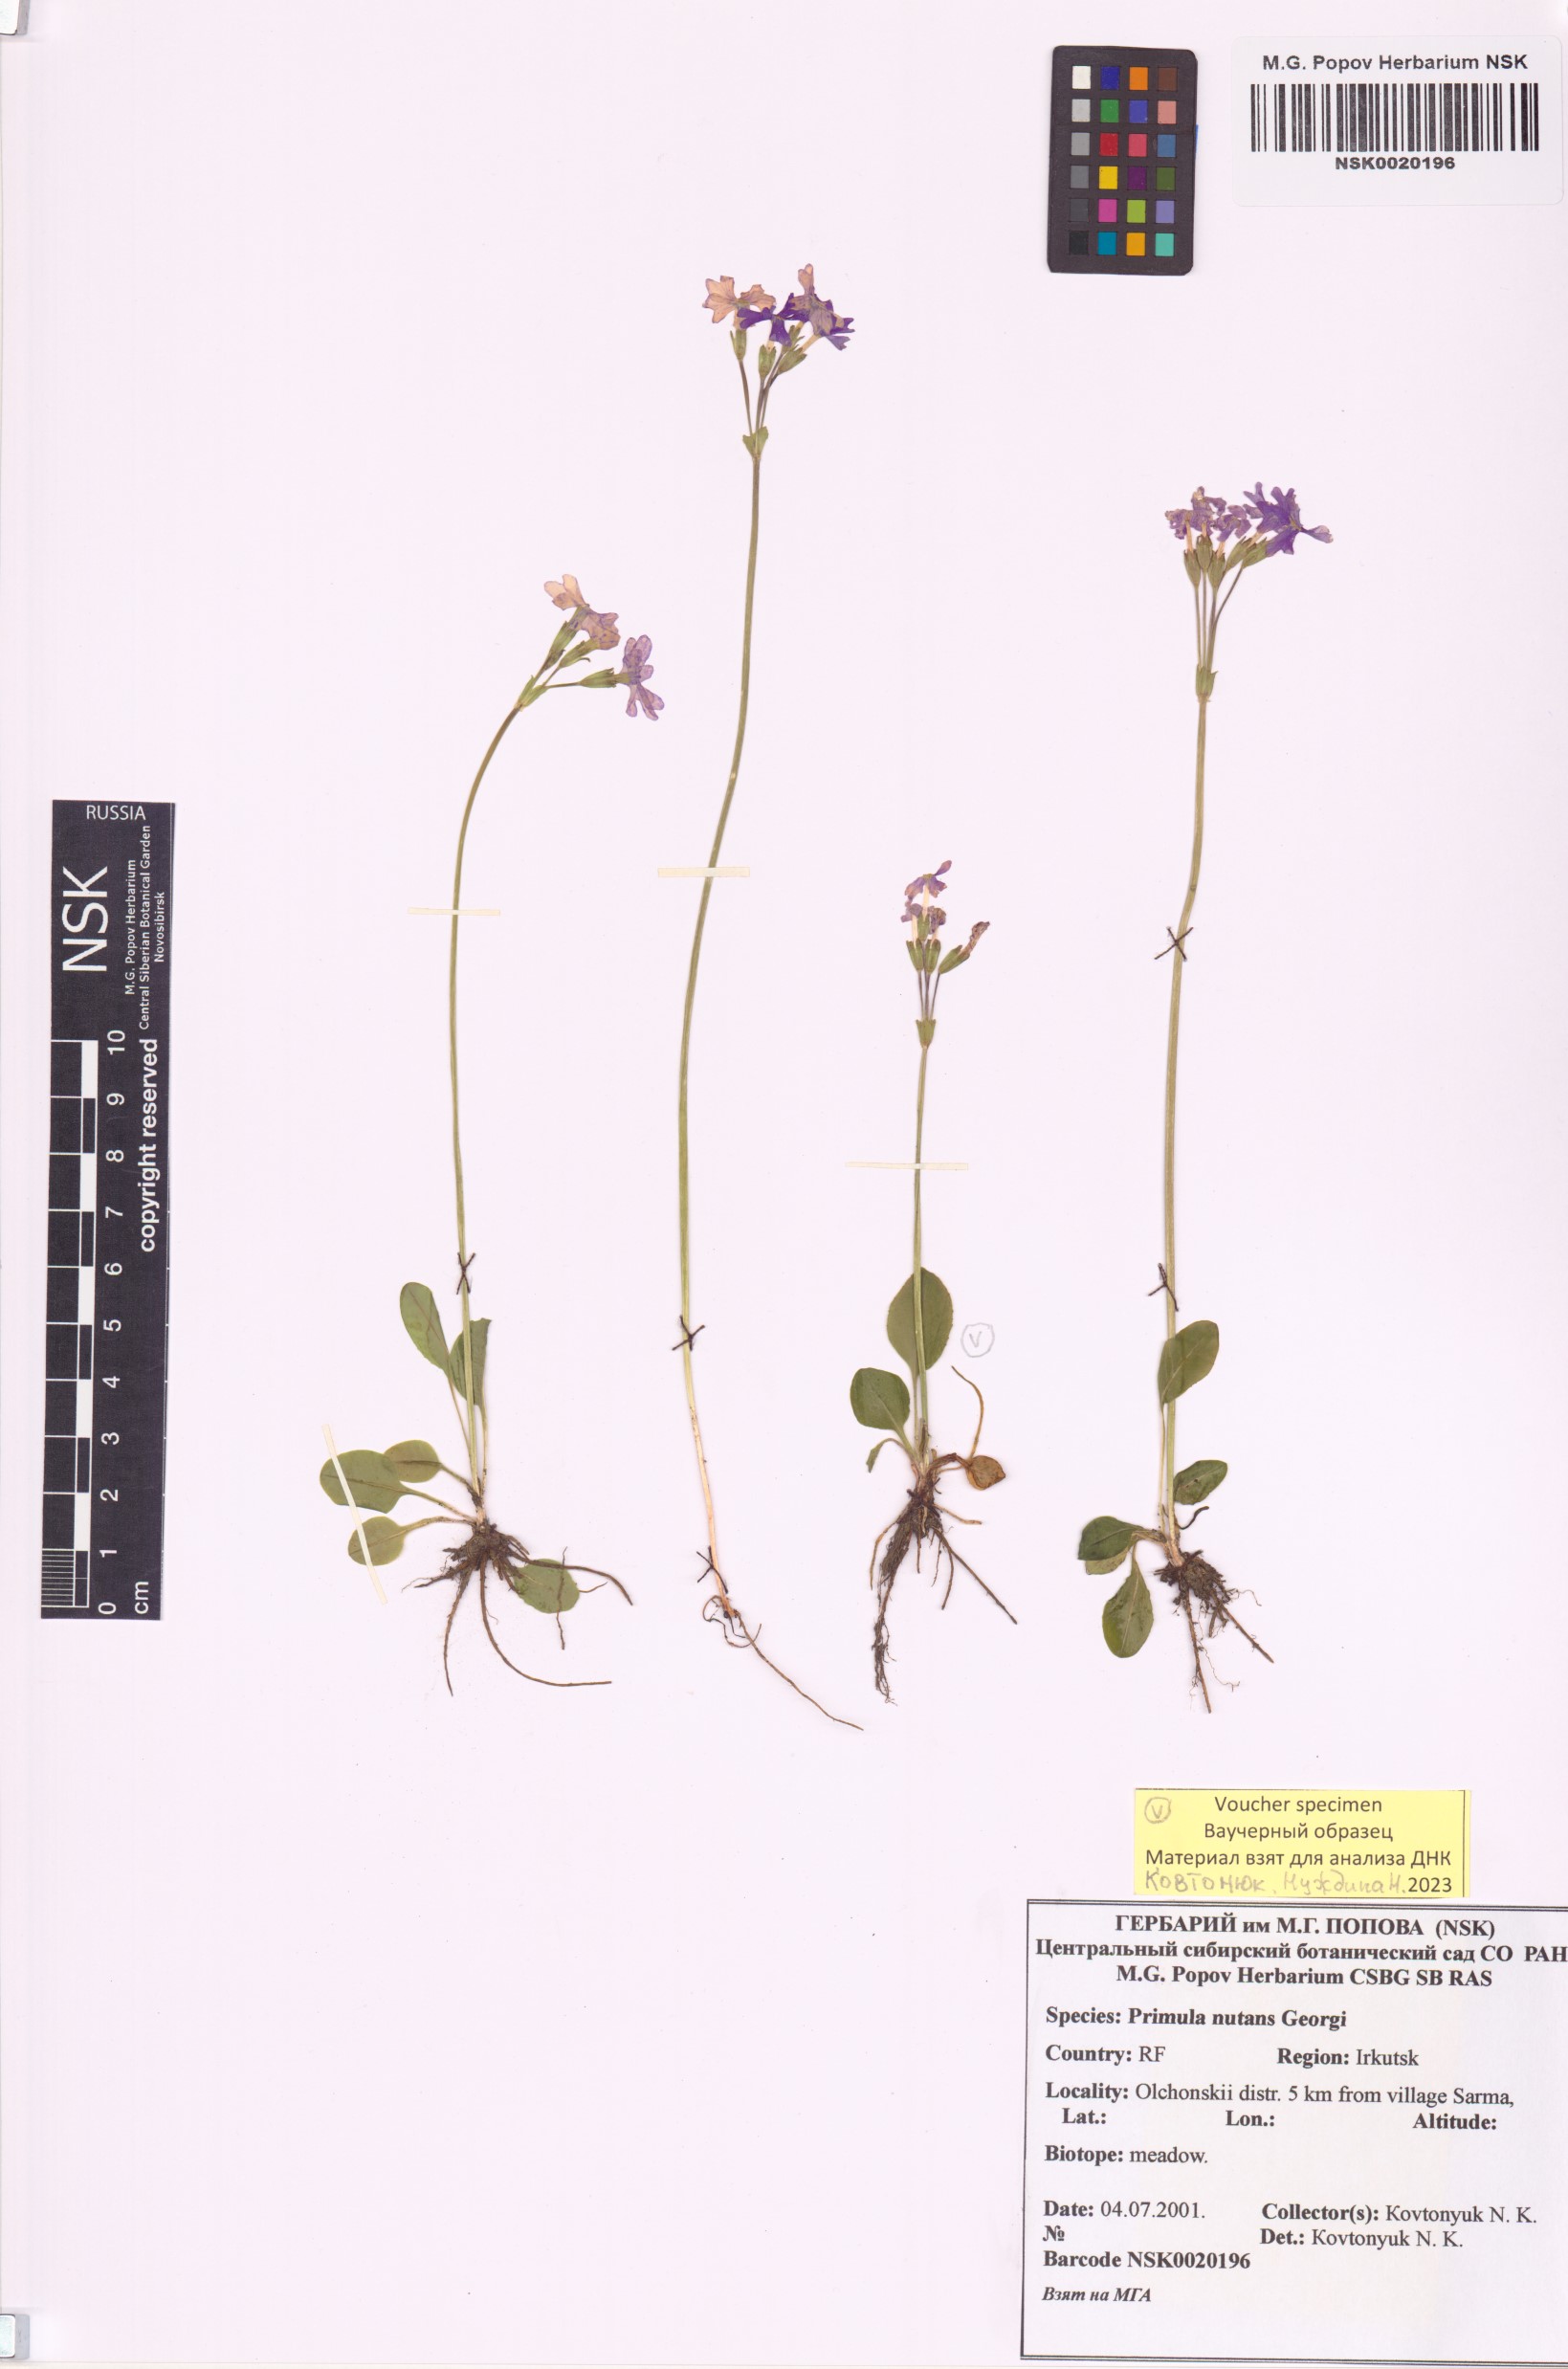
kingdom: Plantae
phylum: Tracheophyta
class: Magnoliopsida
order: Ericales
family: Primulaceae
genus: Primula
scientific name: Primula nutans
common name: Siberian primrose
